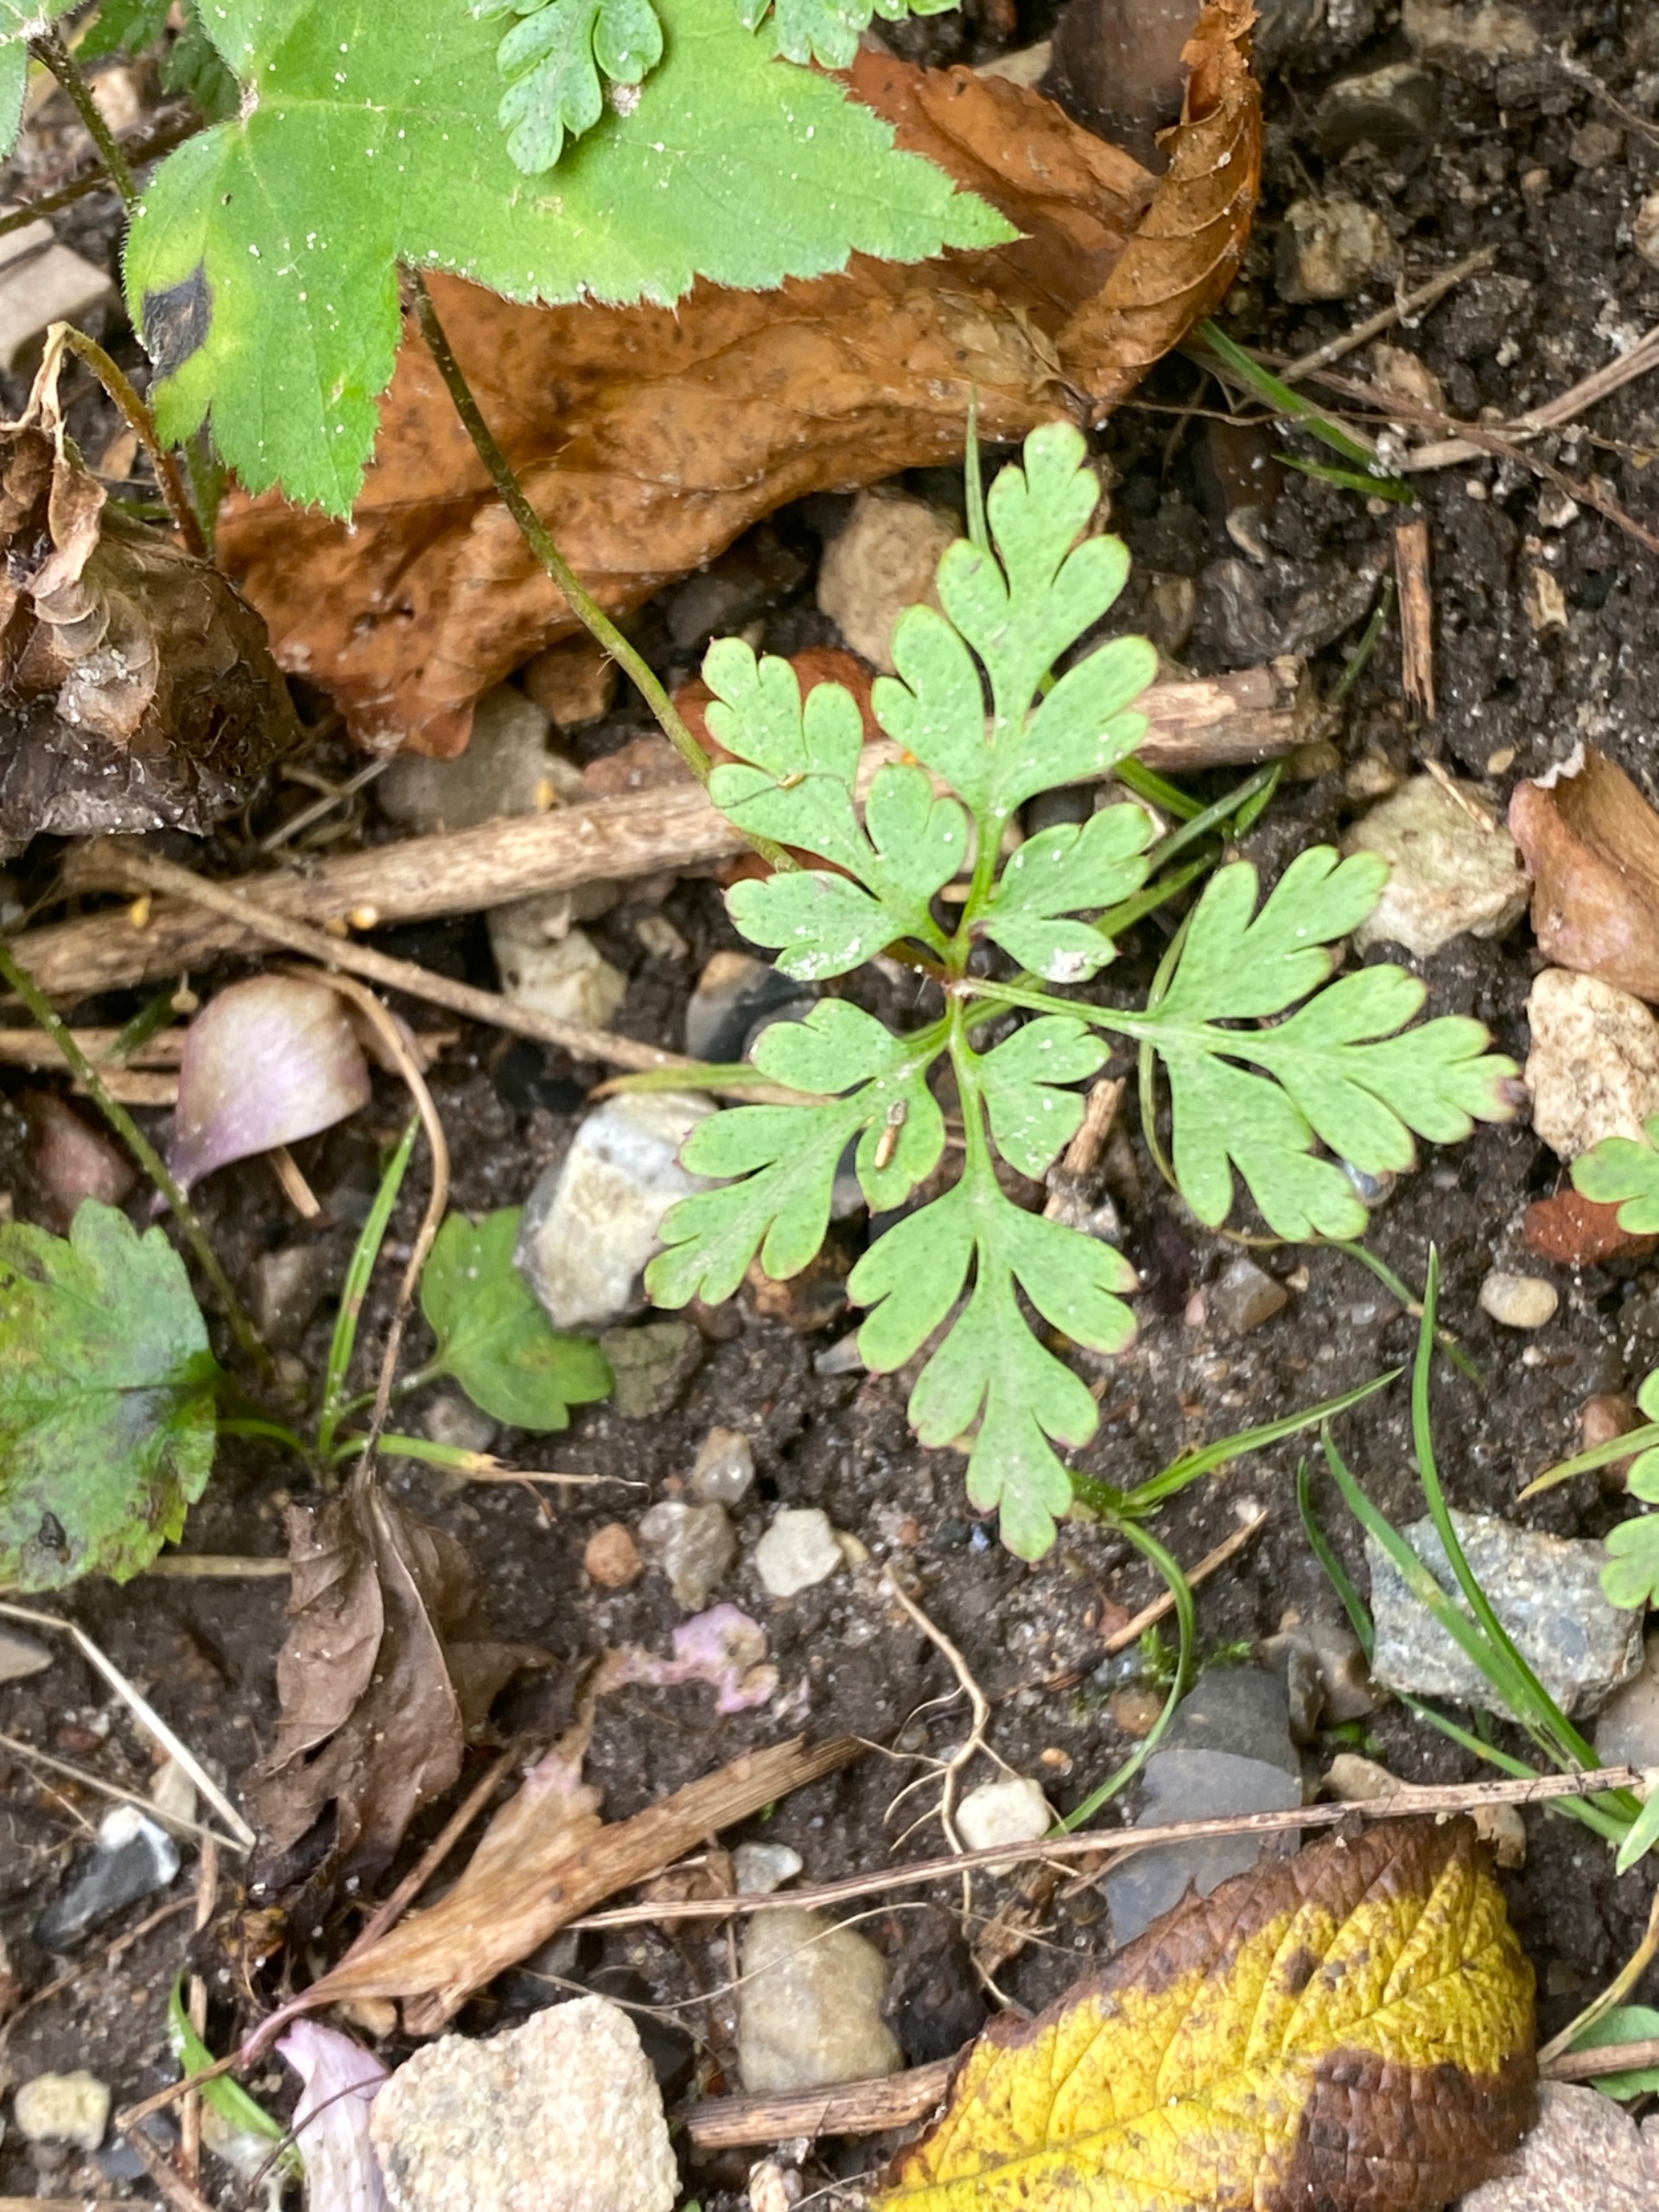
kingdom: Plantae
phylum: Tracheophyta
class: Magnoliopsida
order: Geraniales
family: Geraniaceae
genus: Geranium
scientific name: Geranium robertianum
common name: Stinkende storkenæb
